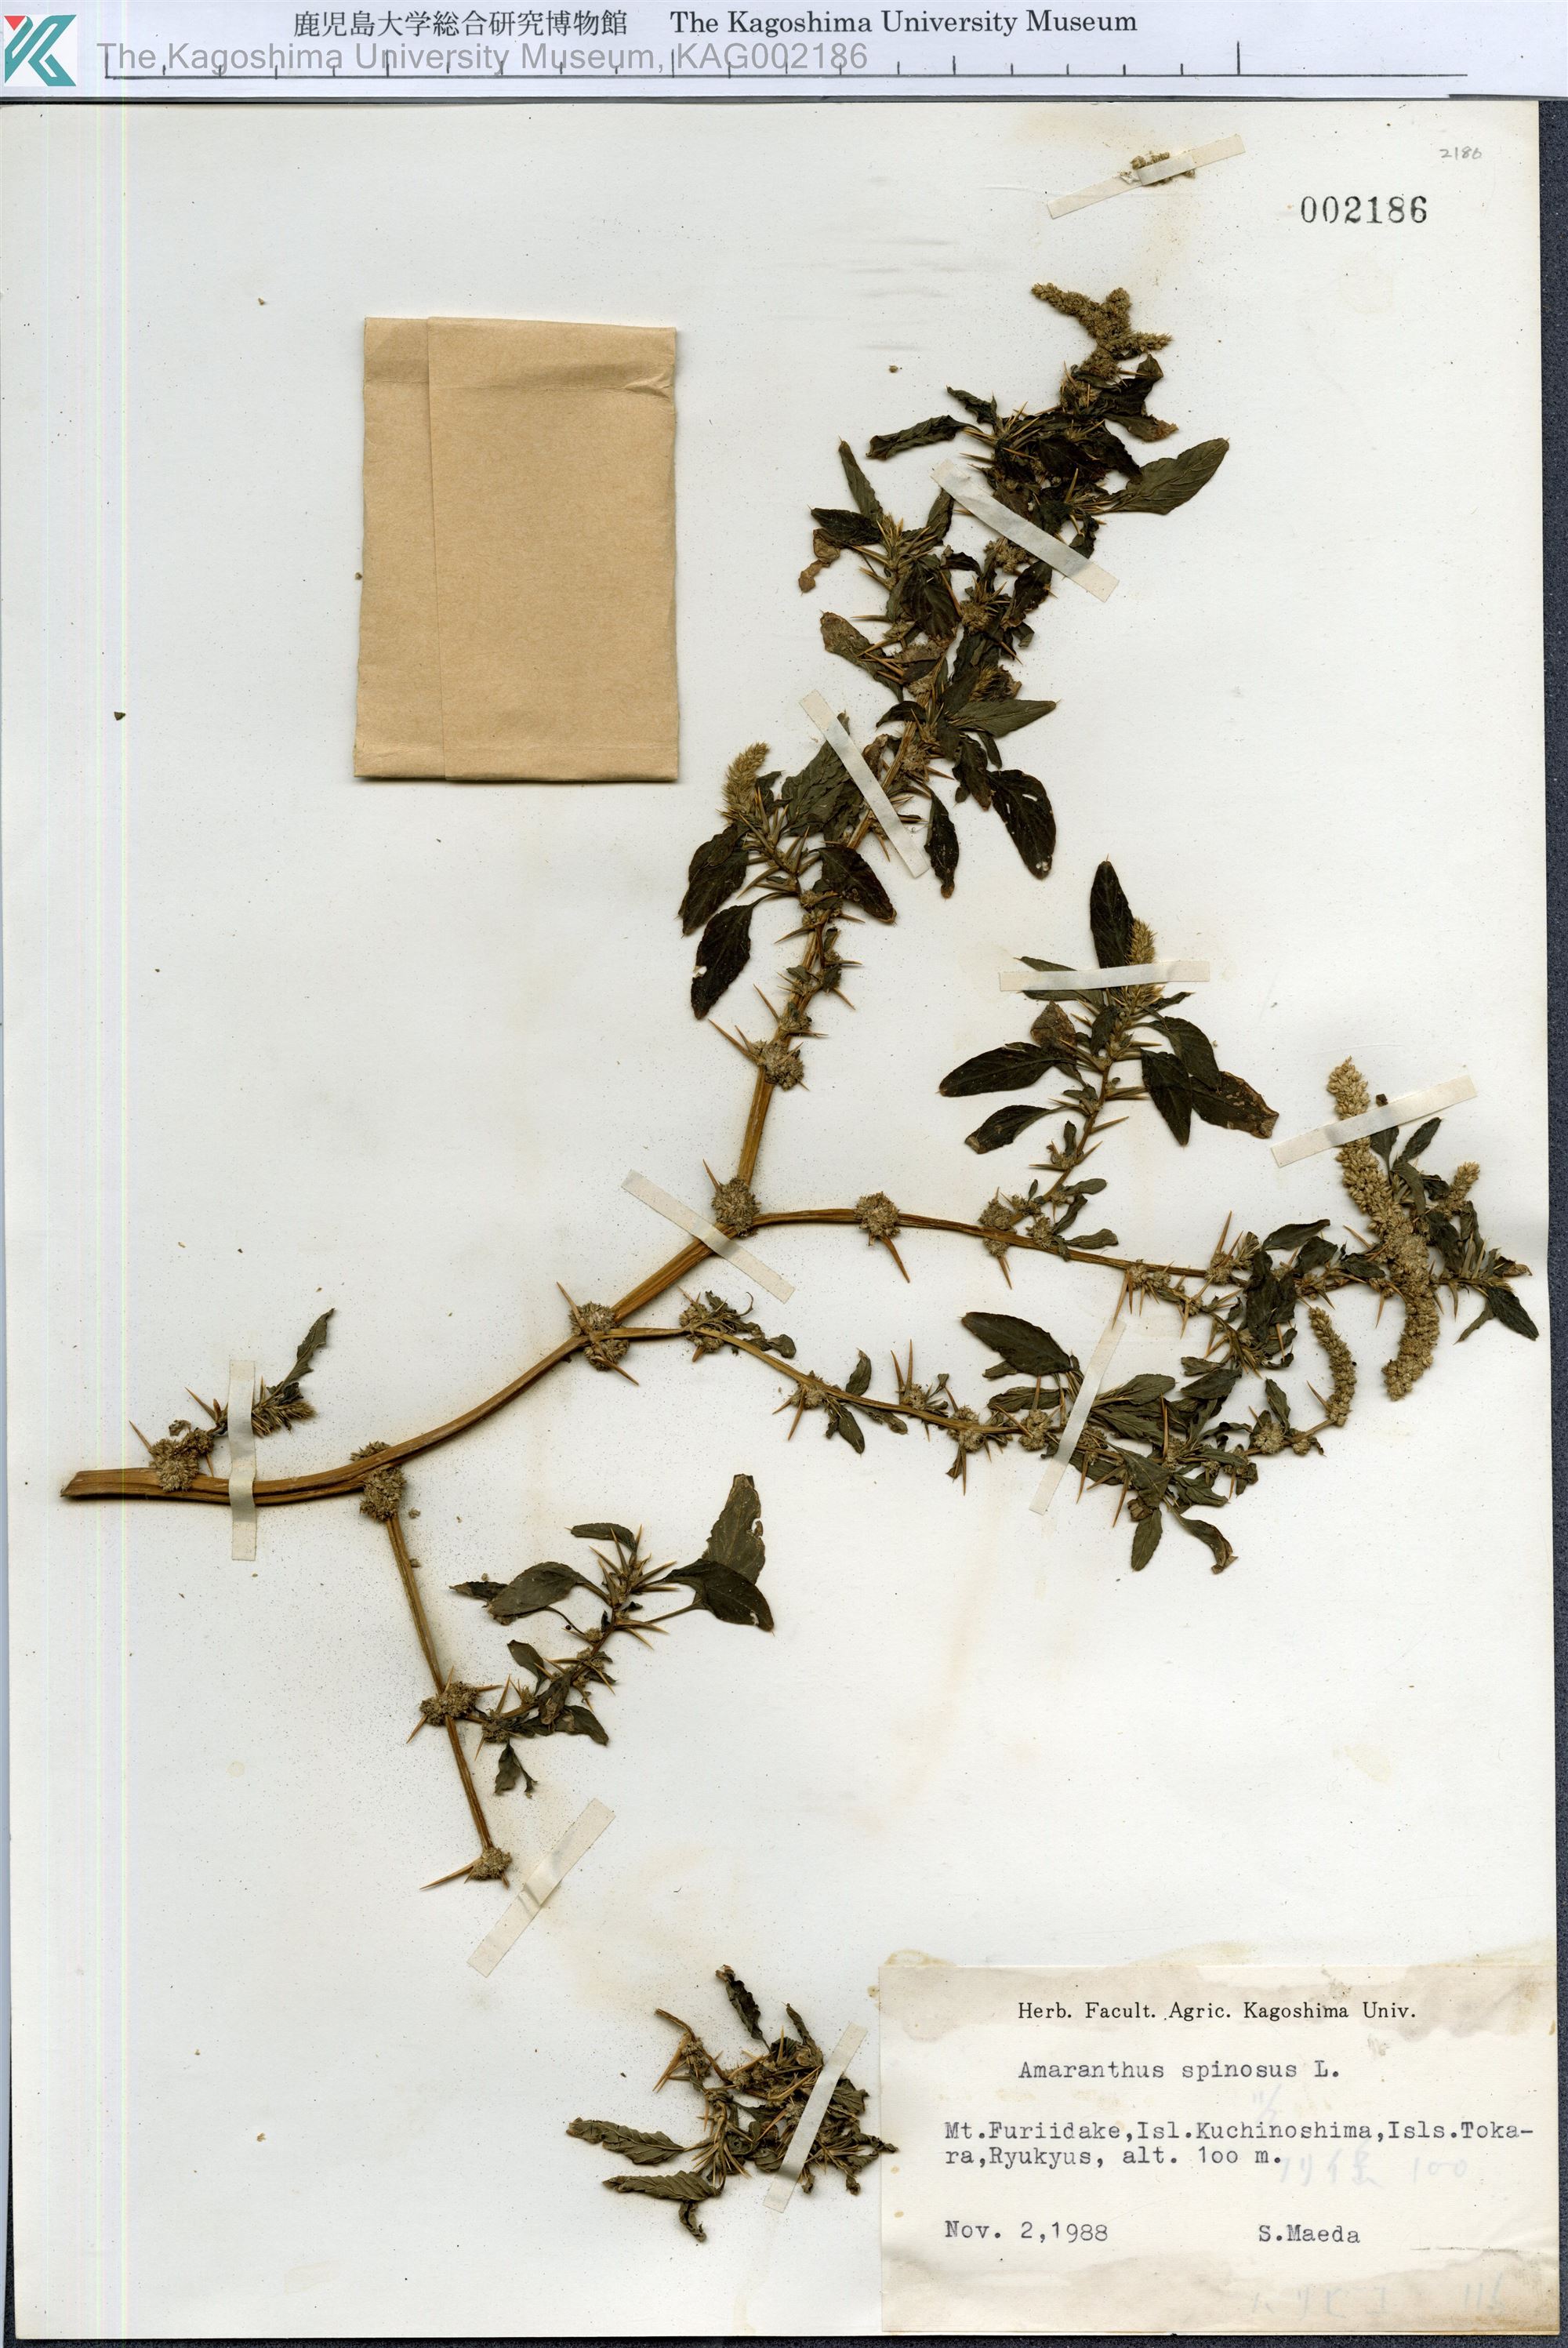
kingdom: Plantae
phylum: Tracheophyta
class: Magnoliopsida
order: Caryophyllales
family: Amaranthaceae
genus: Amaranthus
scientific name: Amaranthus spinosus
